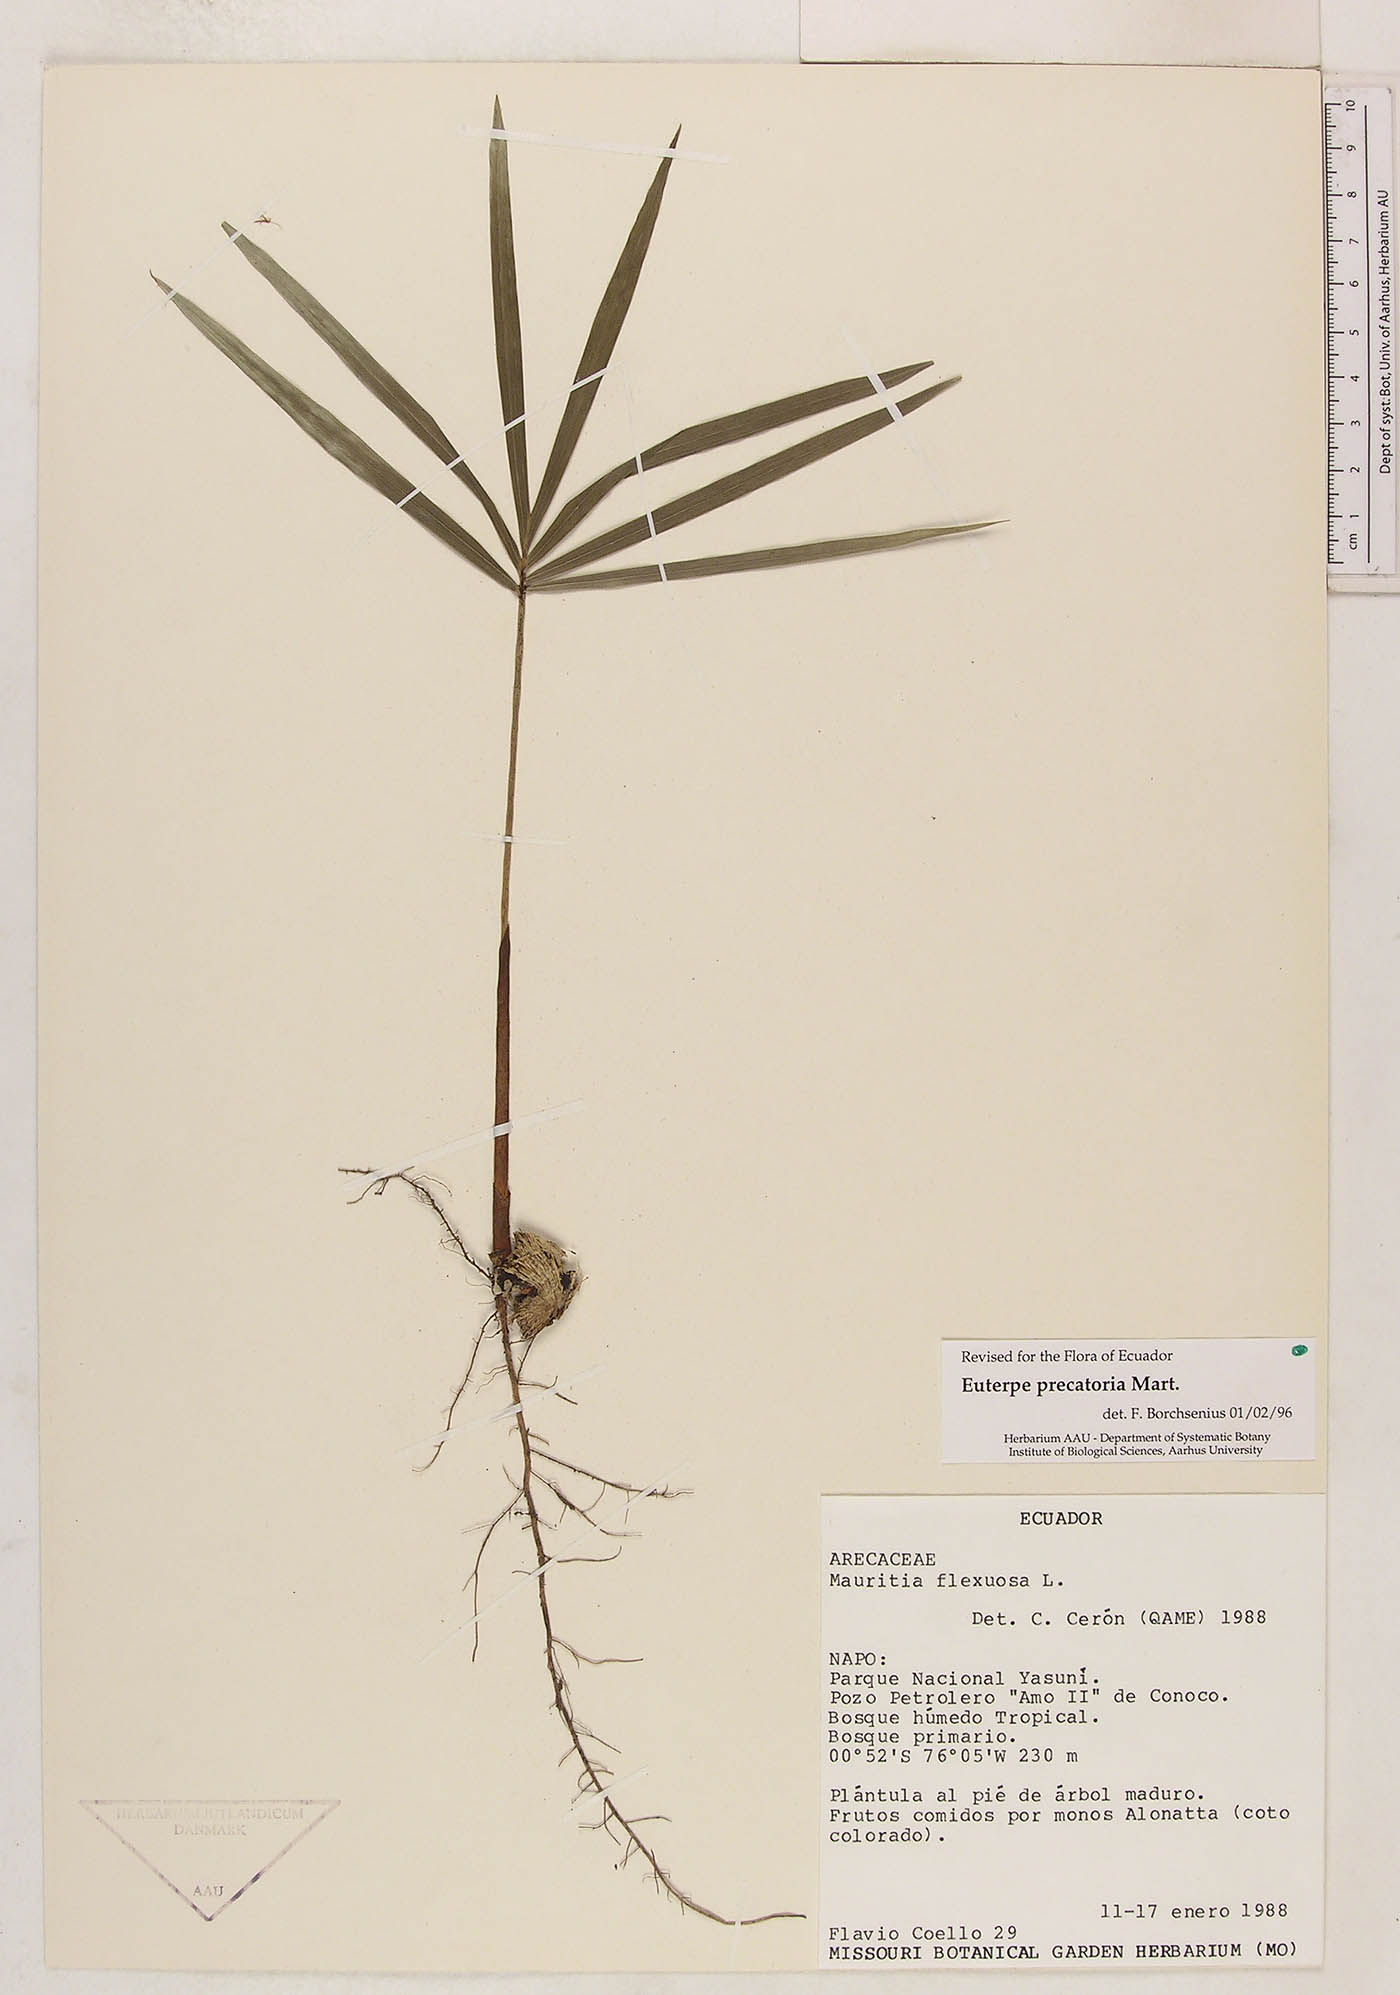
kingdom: Plantae
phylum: Tracheophyta
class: Liliopsida
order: Arecales
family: Arecaceae
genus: Euterpe
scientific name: Euterpe precatoria
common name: Mountain-cabbage
